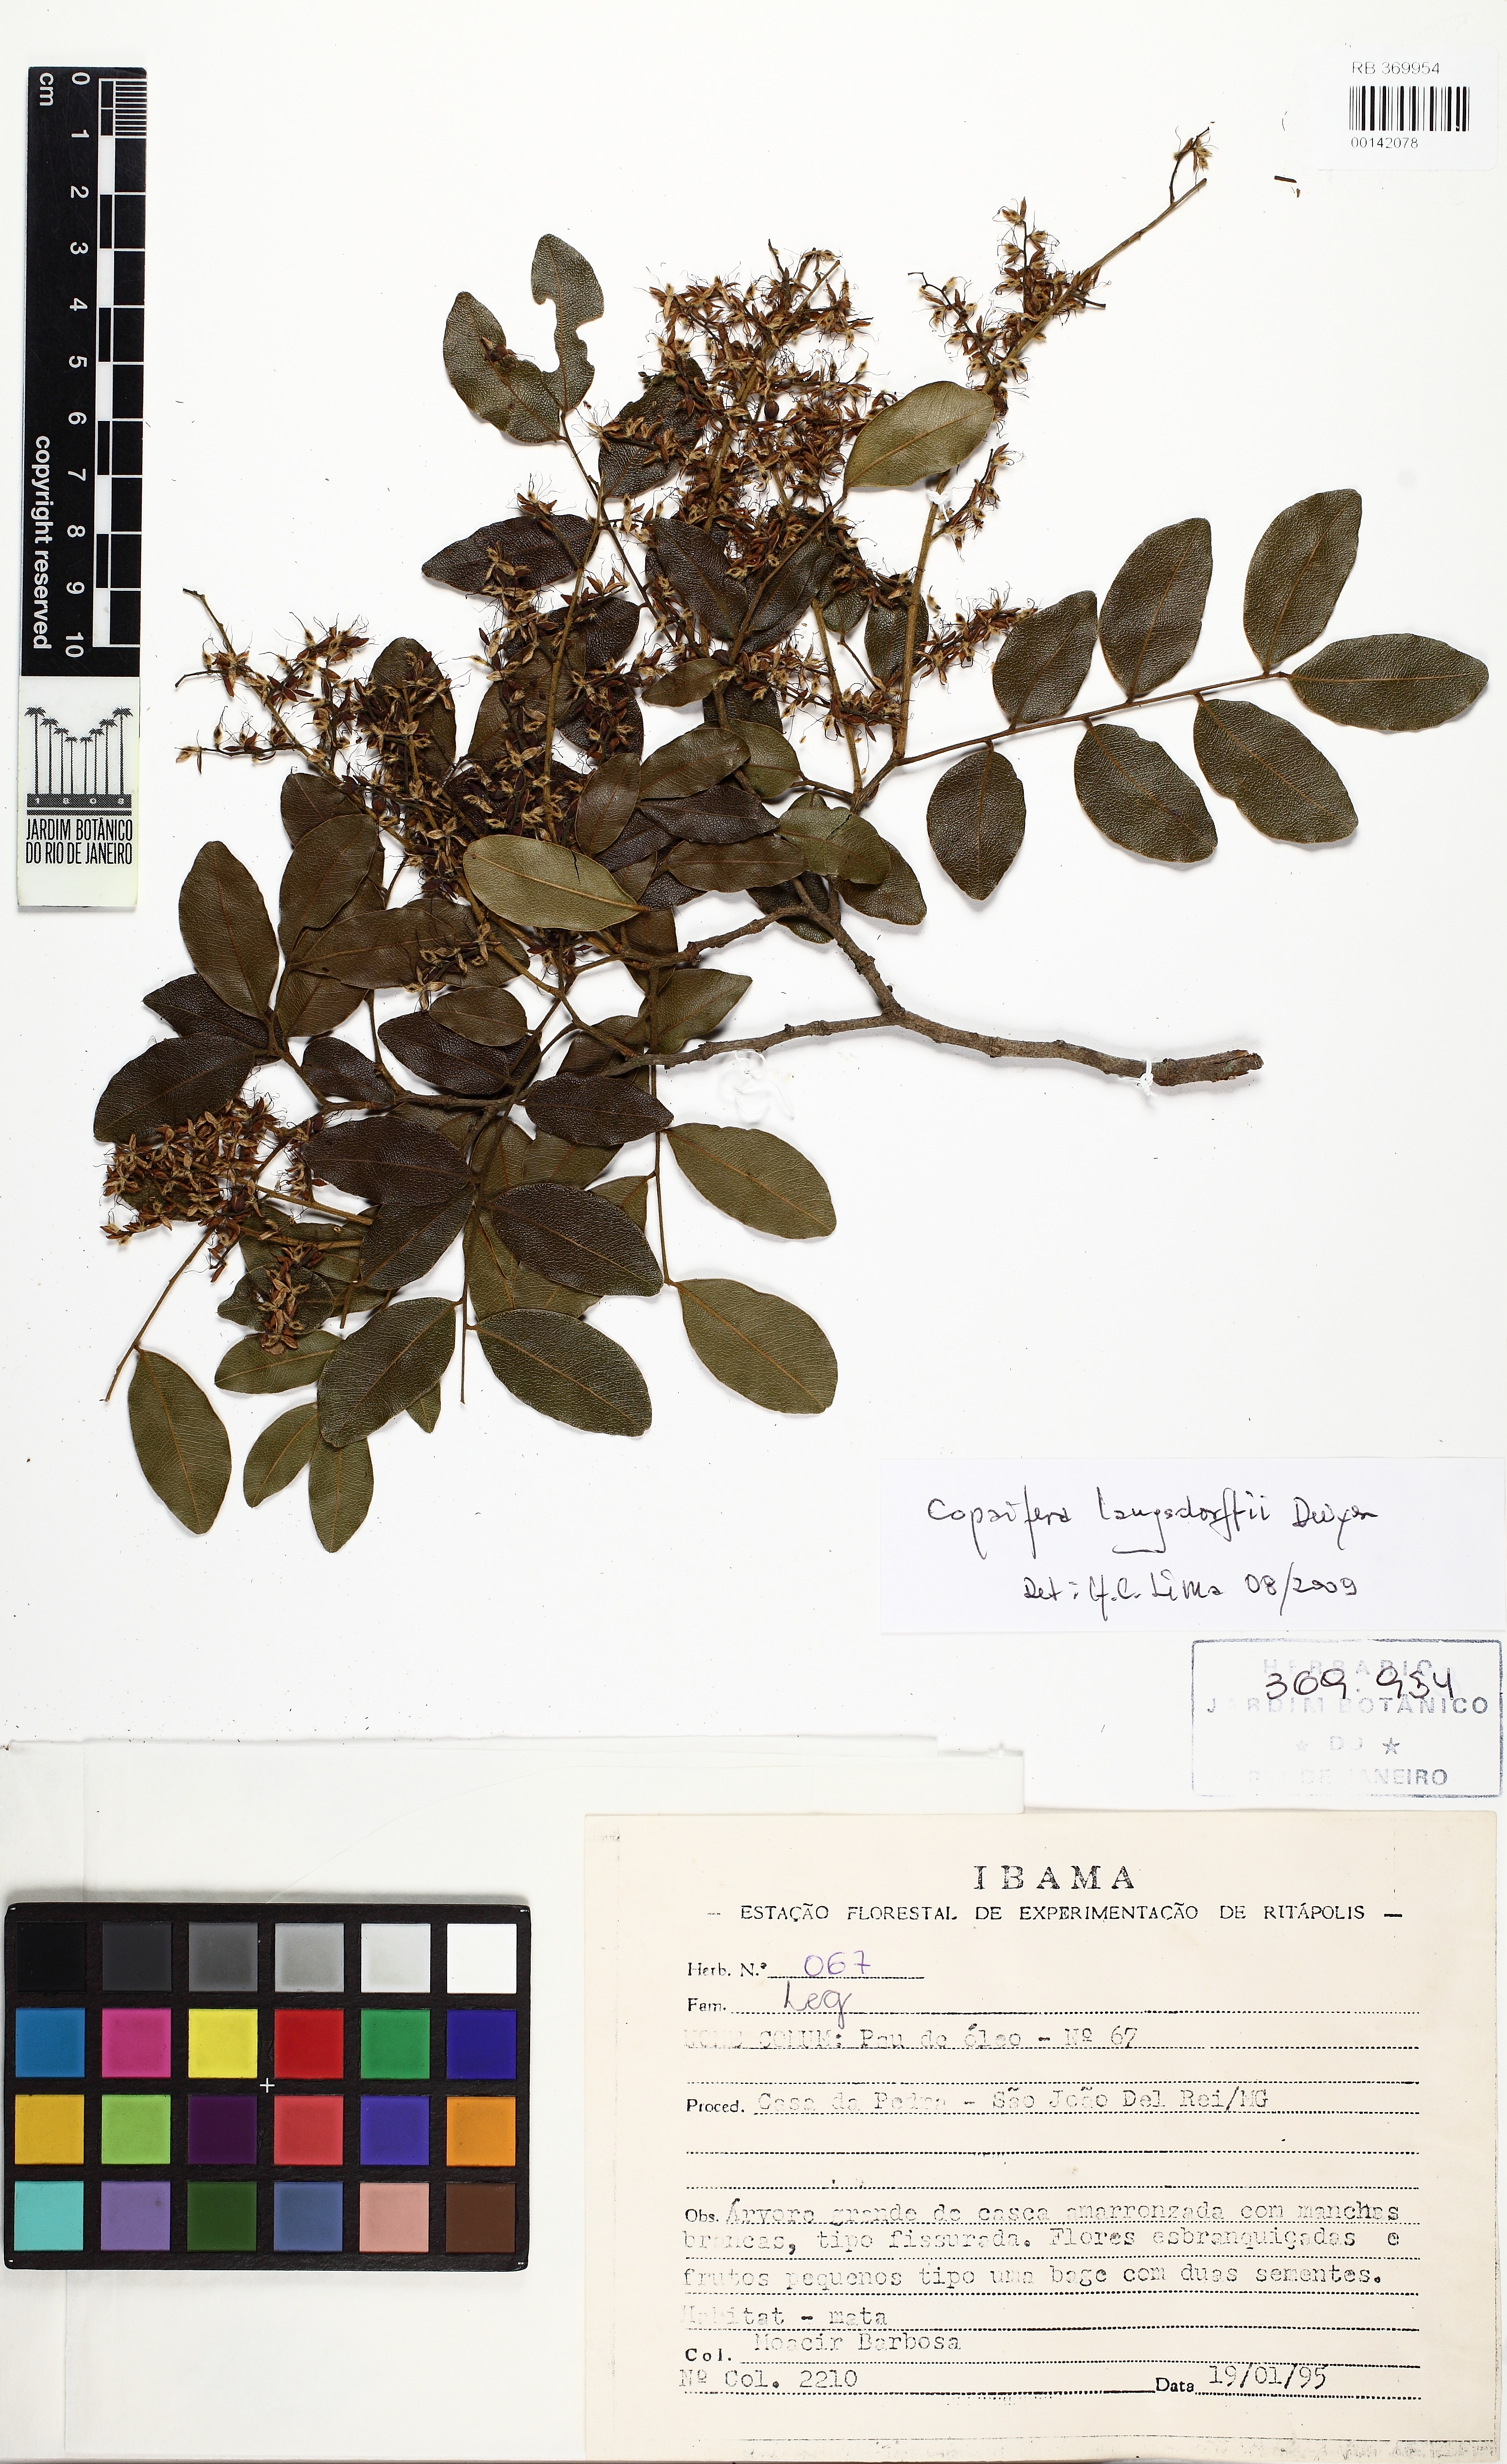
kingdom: Plantae
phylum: Tracheophyta
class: Magnoliopsida
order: Fabales
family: Fabaceae
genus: Copaifera
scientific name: Copaifera langsdorffii
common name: Brazilian diesel tree
